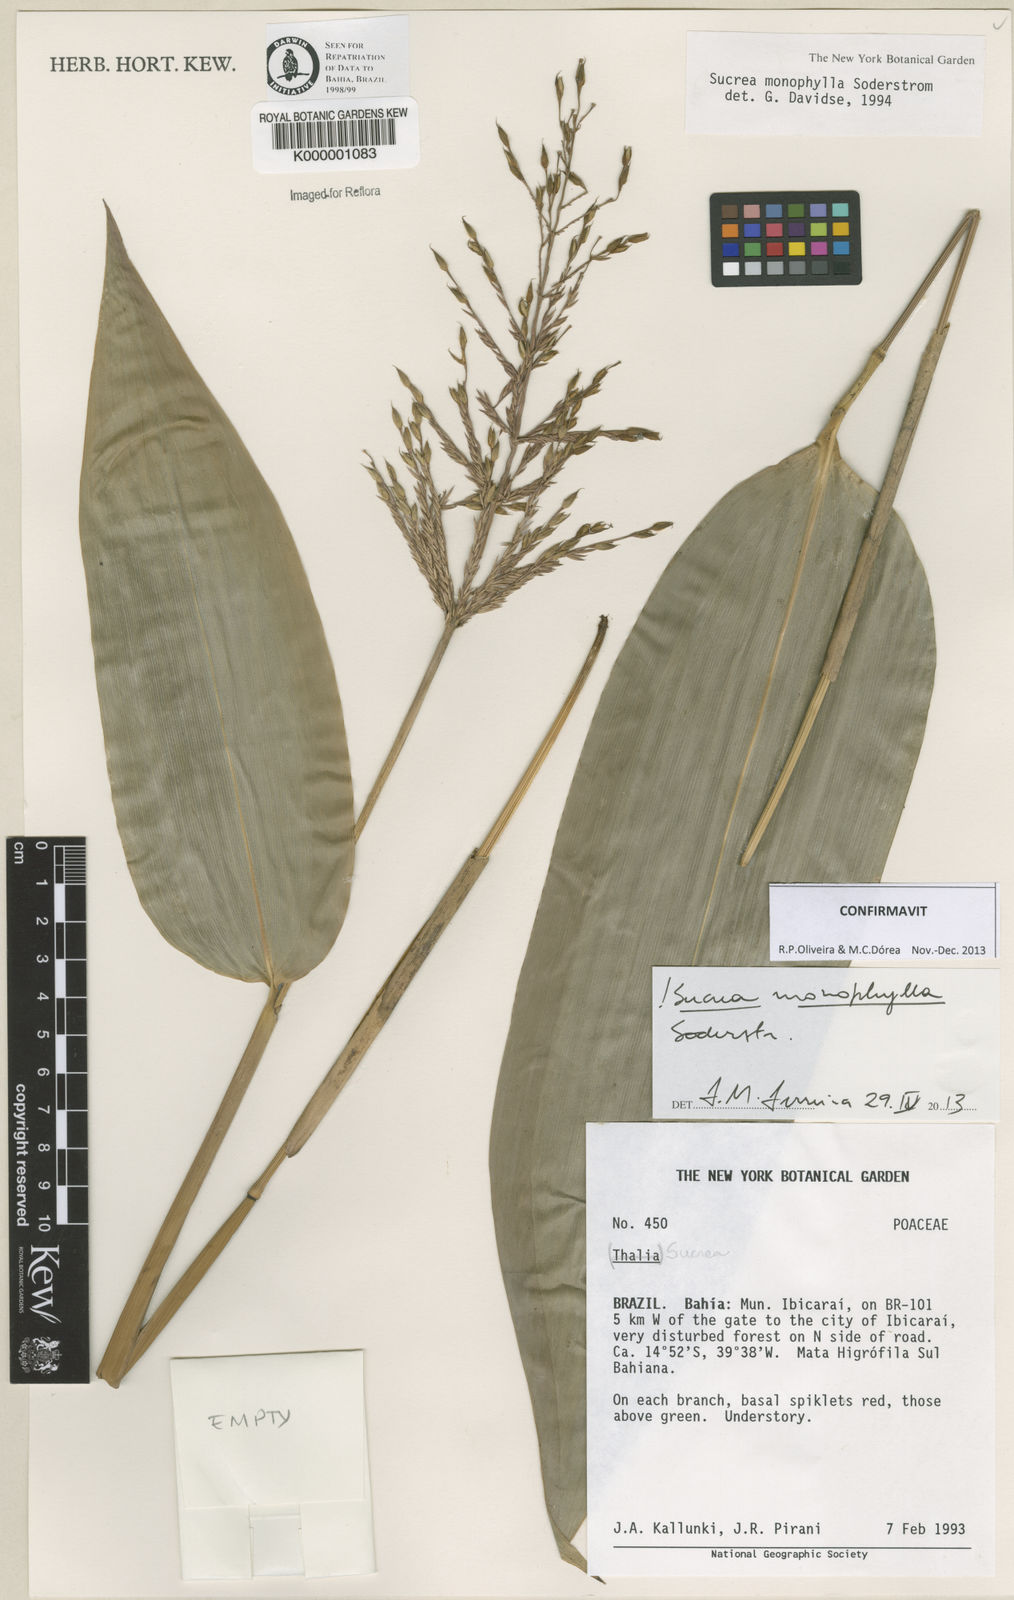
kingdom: Plantae
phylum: Tracheophyta
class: Liliopsida
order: Poales
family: Poaceae
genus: Raddia
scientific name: Raddia monophylla
